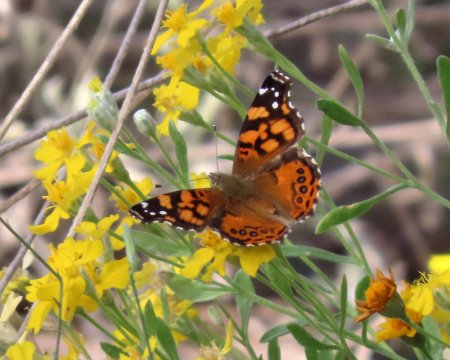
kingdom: Animalia
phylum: Arthropoda
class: Insecta
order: Lepidoptera
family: Nymphalidae
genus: Vanessa
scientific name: Vanessa annabella
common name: West Coast Lady
